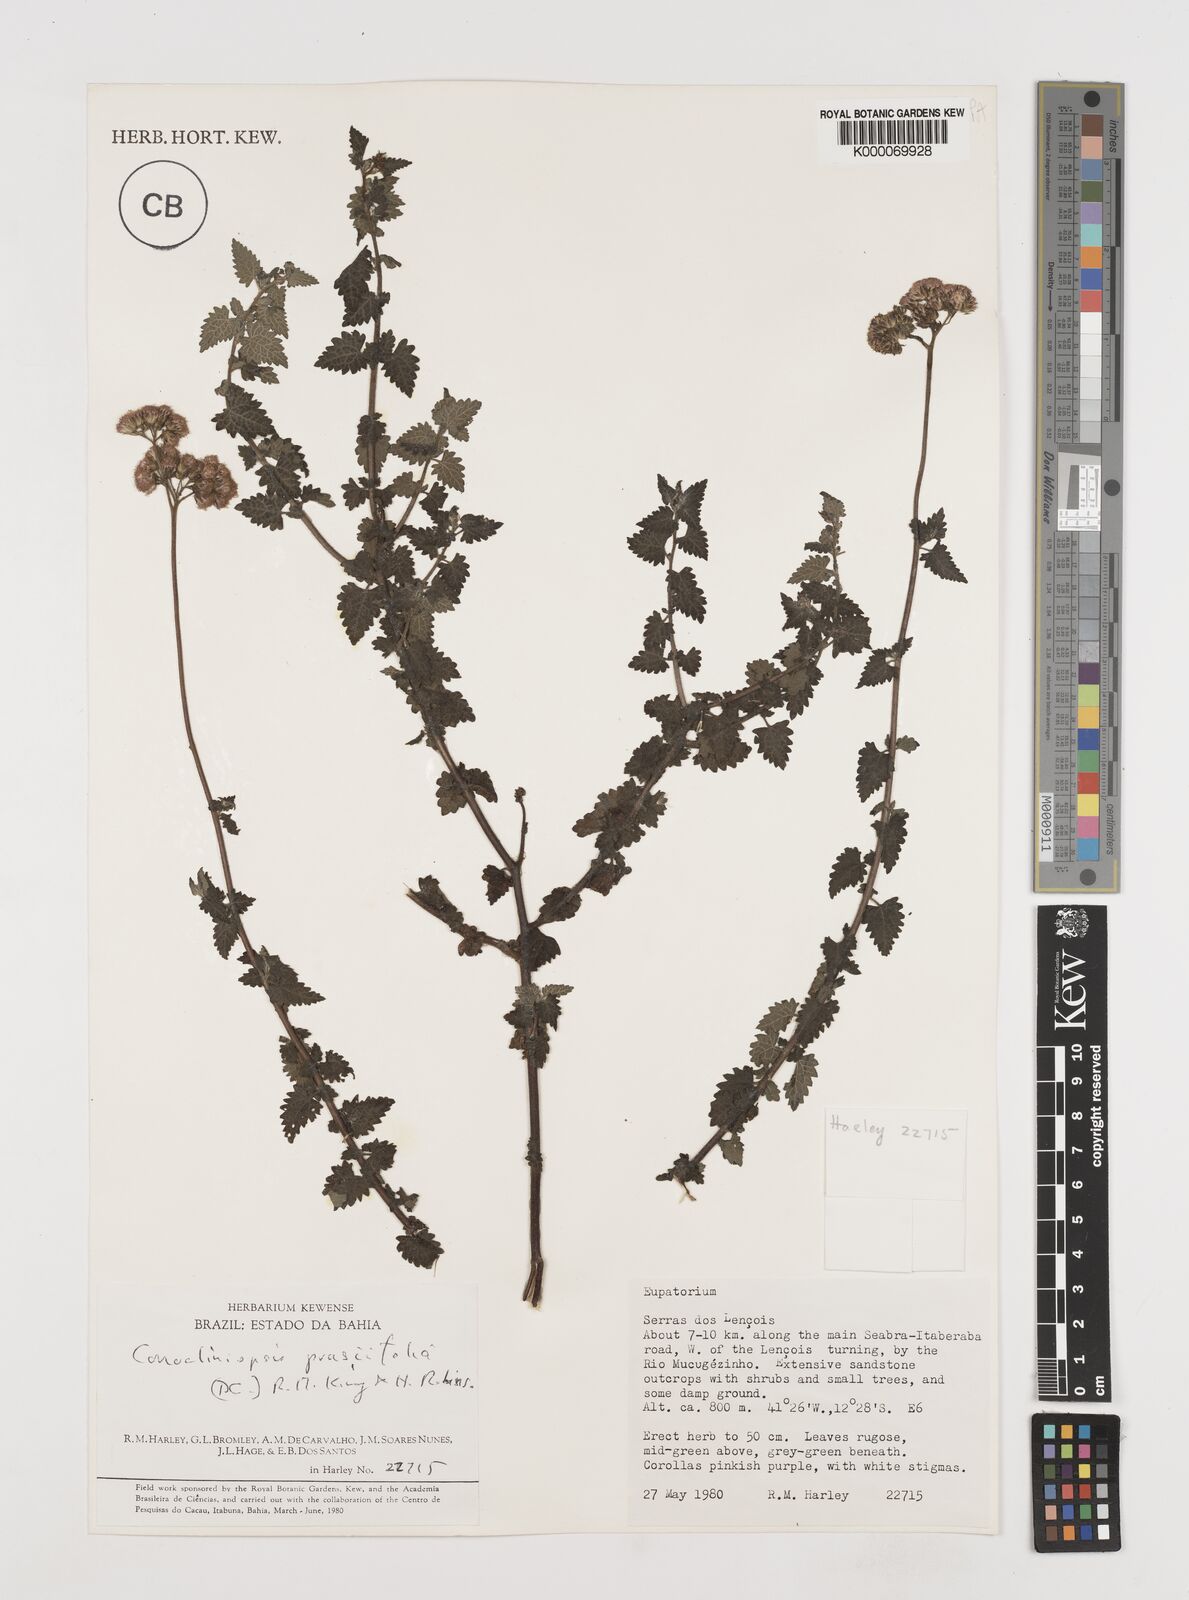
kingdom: Plantae
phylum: Tracheophyta
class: Magnoliopsida
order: Asterales
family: Asteraceae
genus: Conocliniopsis
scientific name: Conocliniopsis grossedentata
